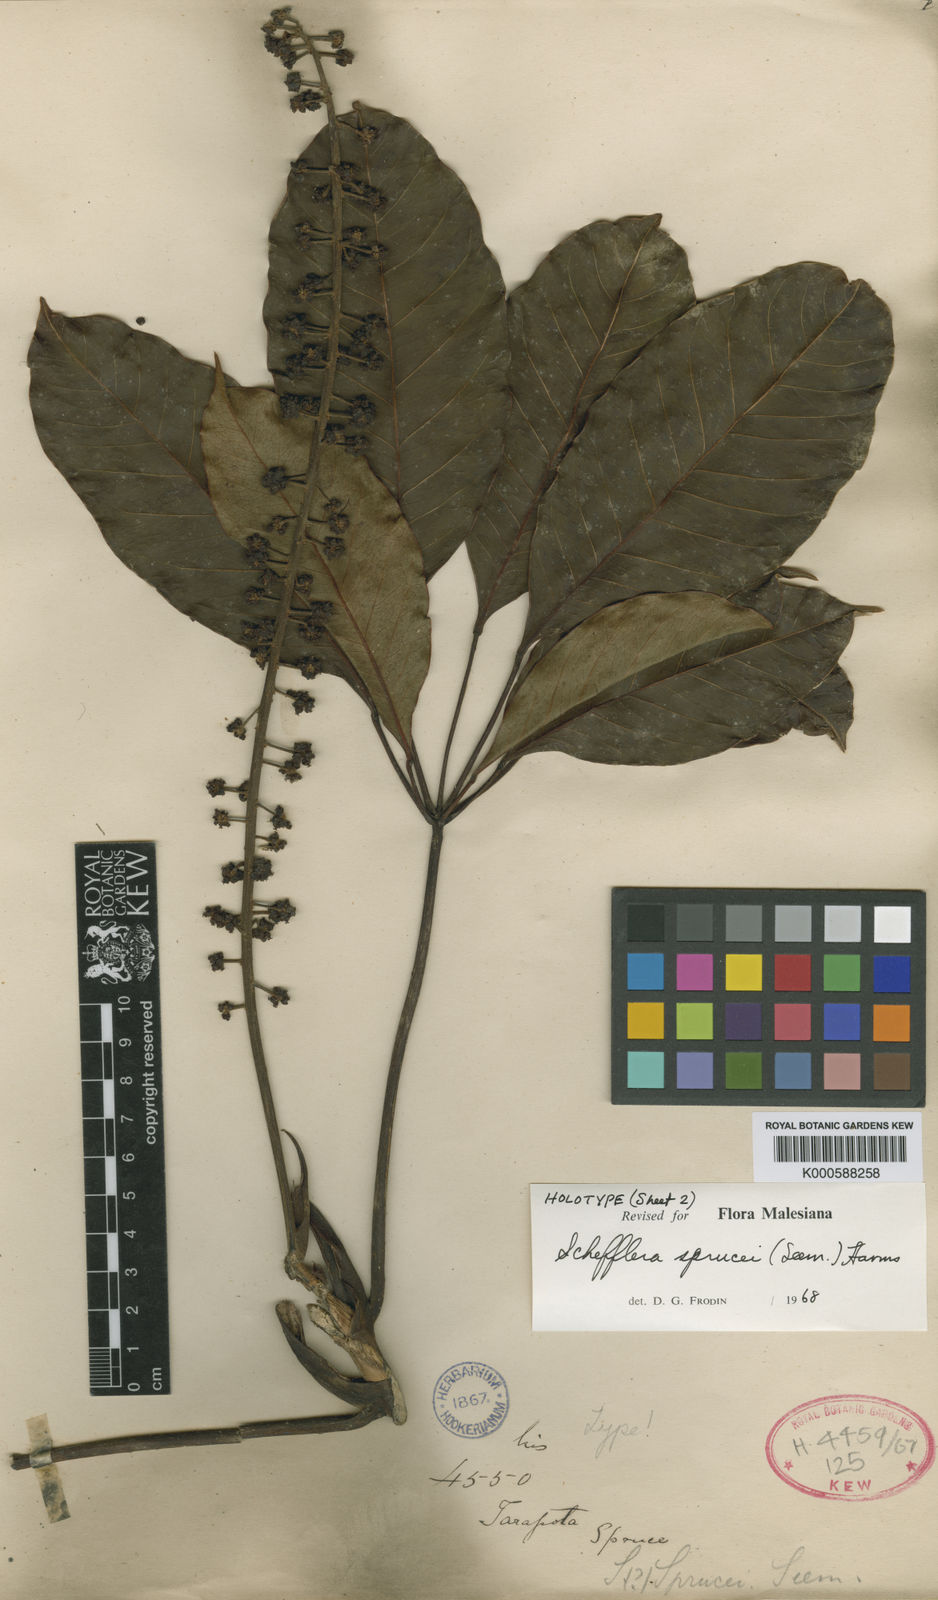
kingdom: Plantae
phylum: Tracheophyta
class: Magnoliopsida
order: Apiales
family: Araliaceae
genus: Sciodaphyllum
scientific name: Sciodaphyllum sprucei
